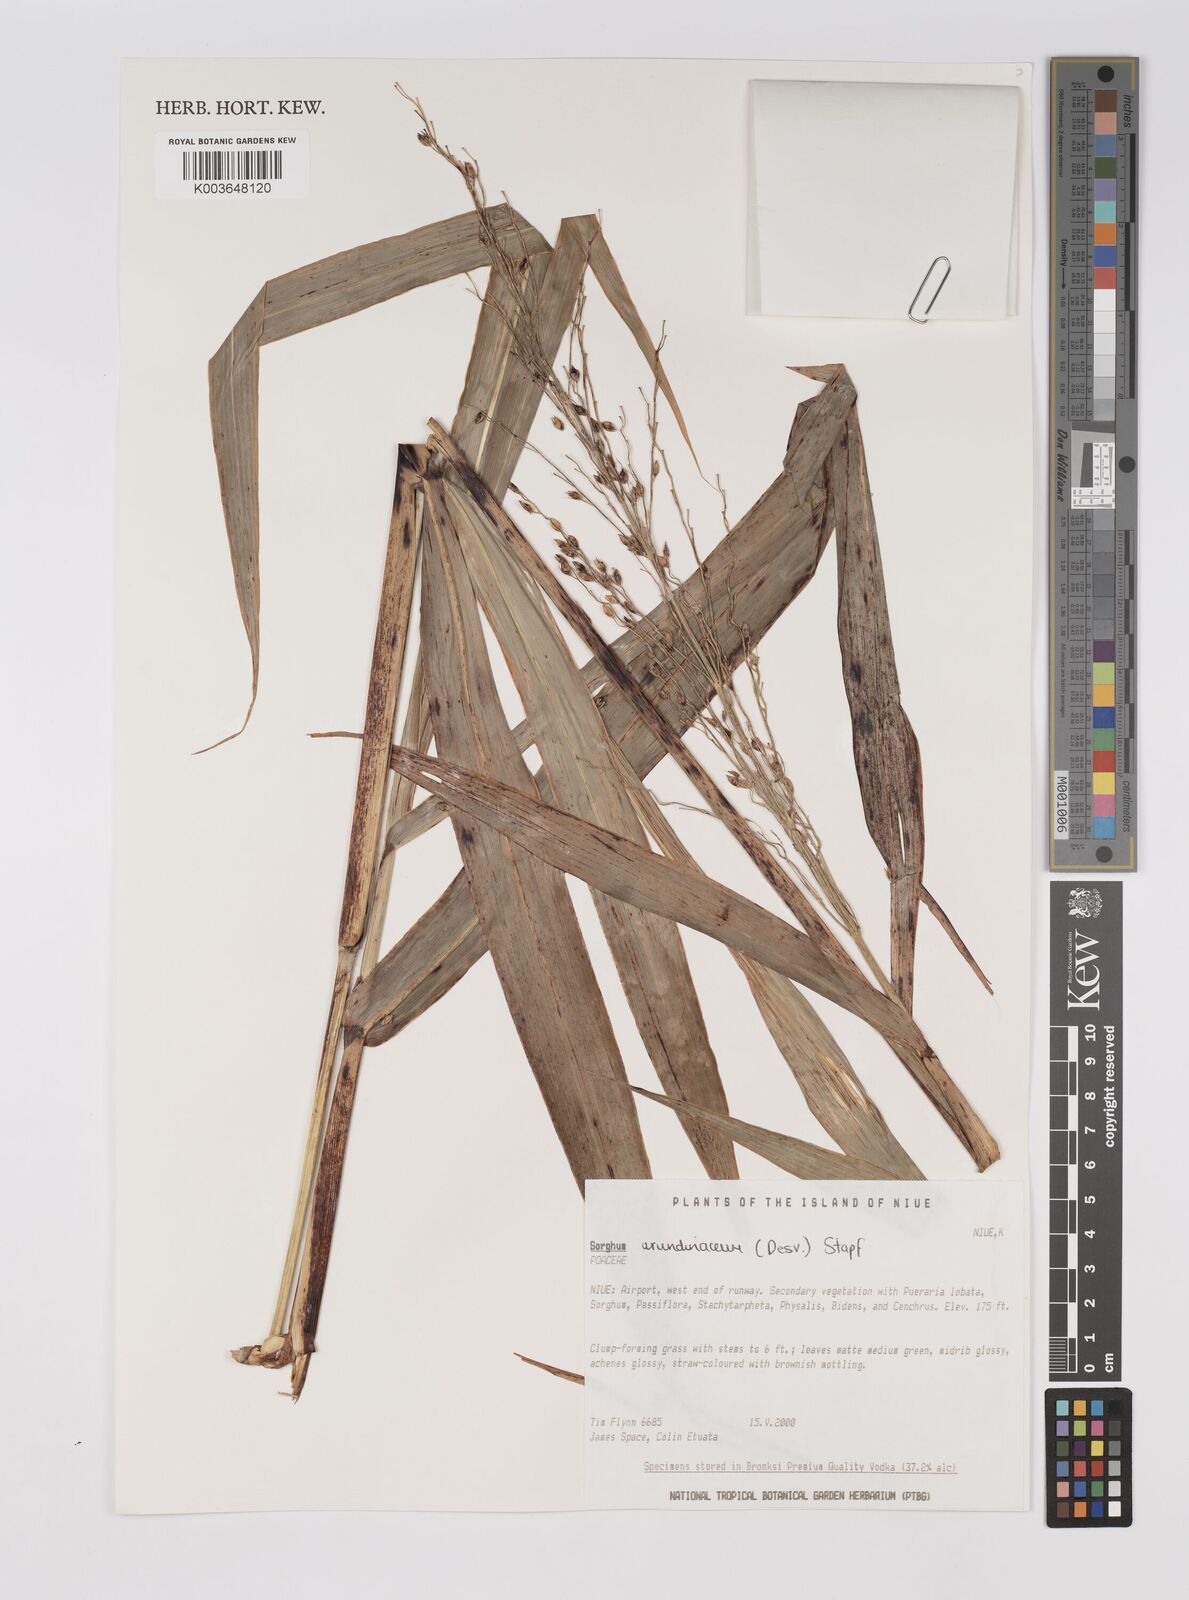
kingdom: Plantae
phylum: Tracheophyta
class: Liliopsida
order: Poales
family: Poaceae
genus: Sorghum
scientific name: Sorghum arundinaceum
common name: Sorghum
